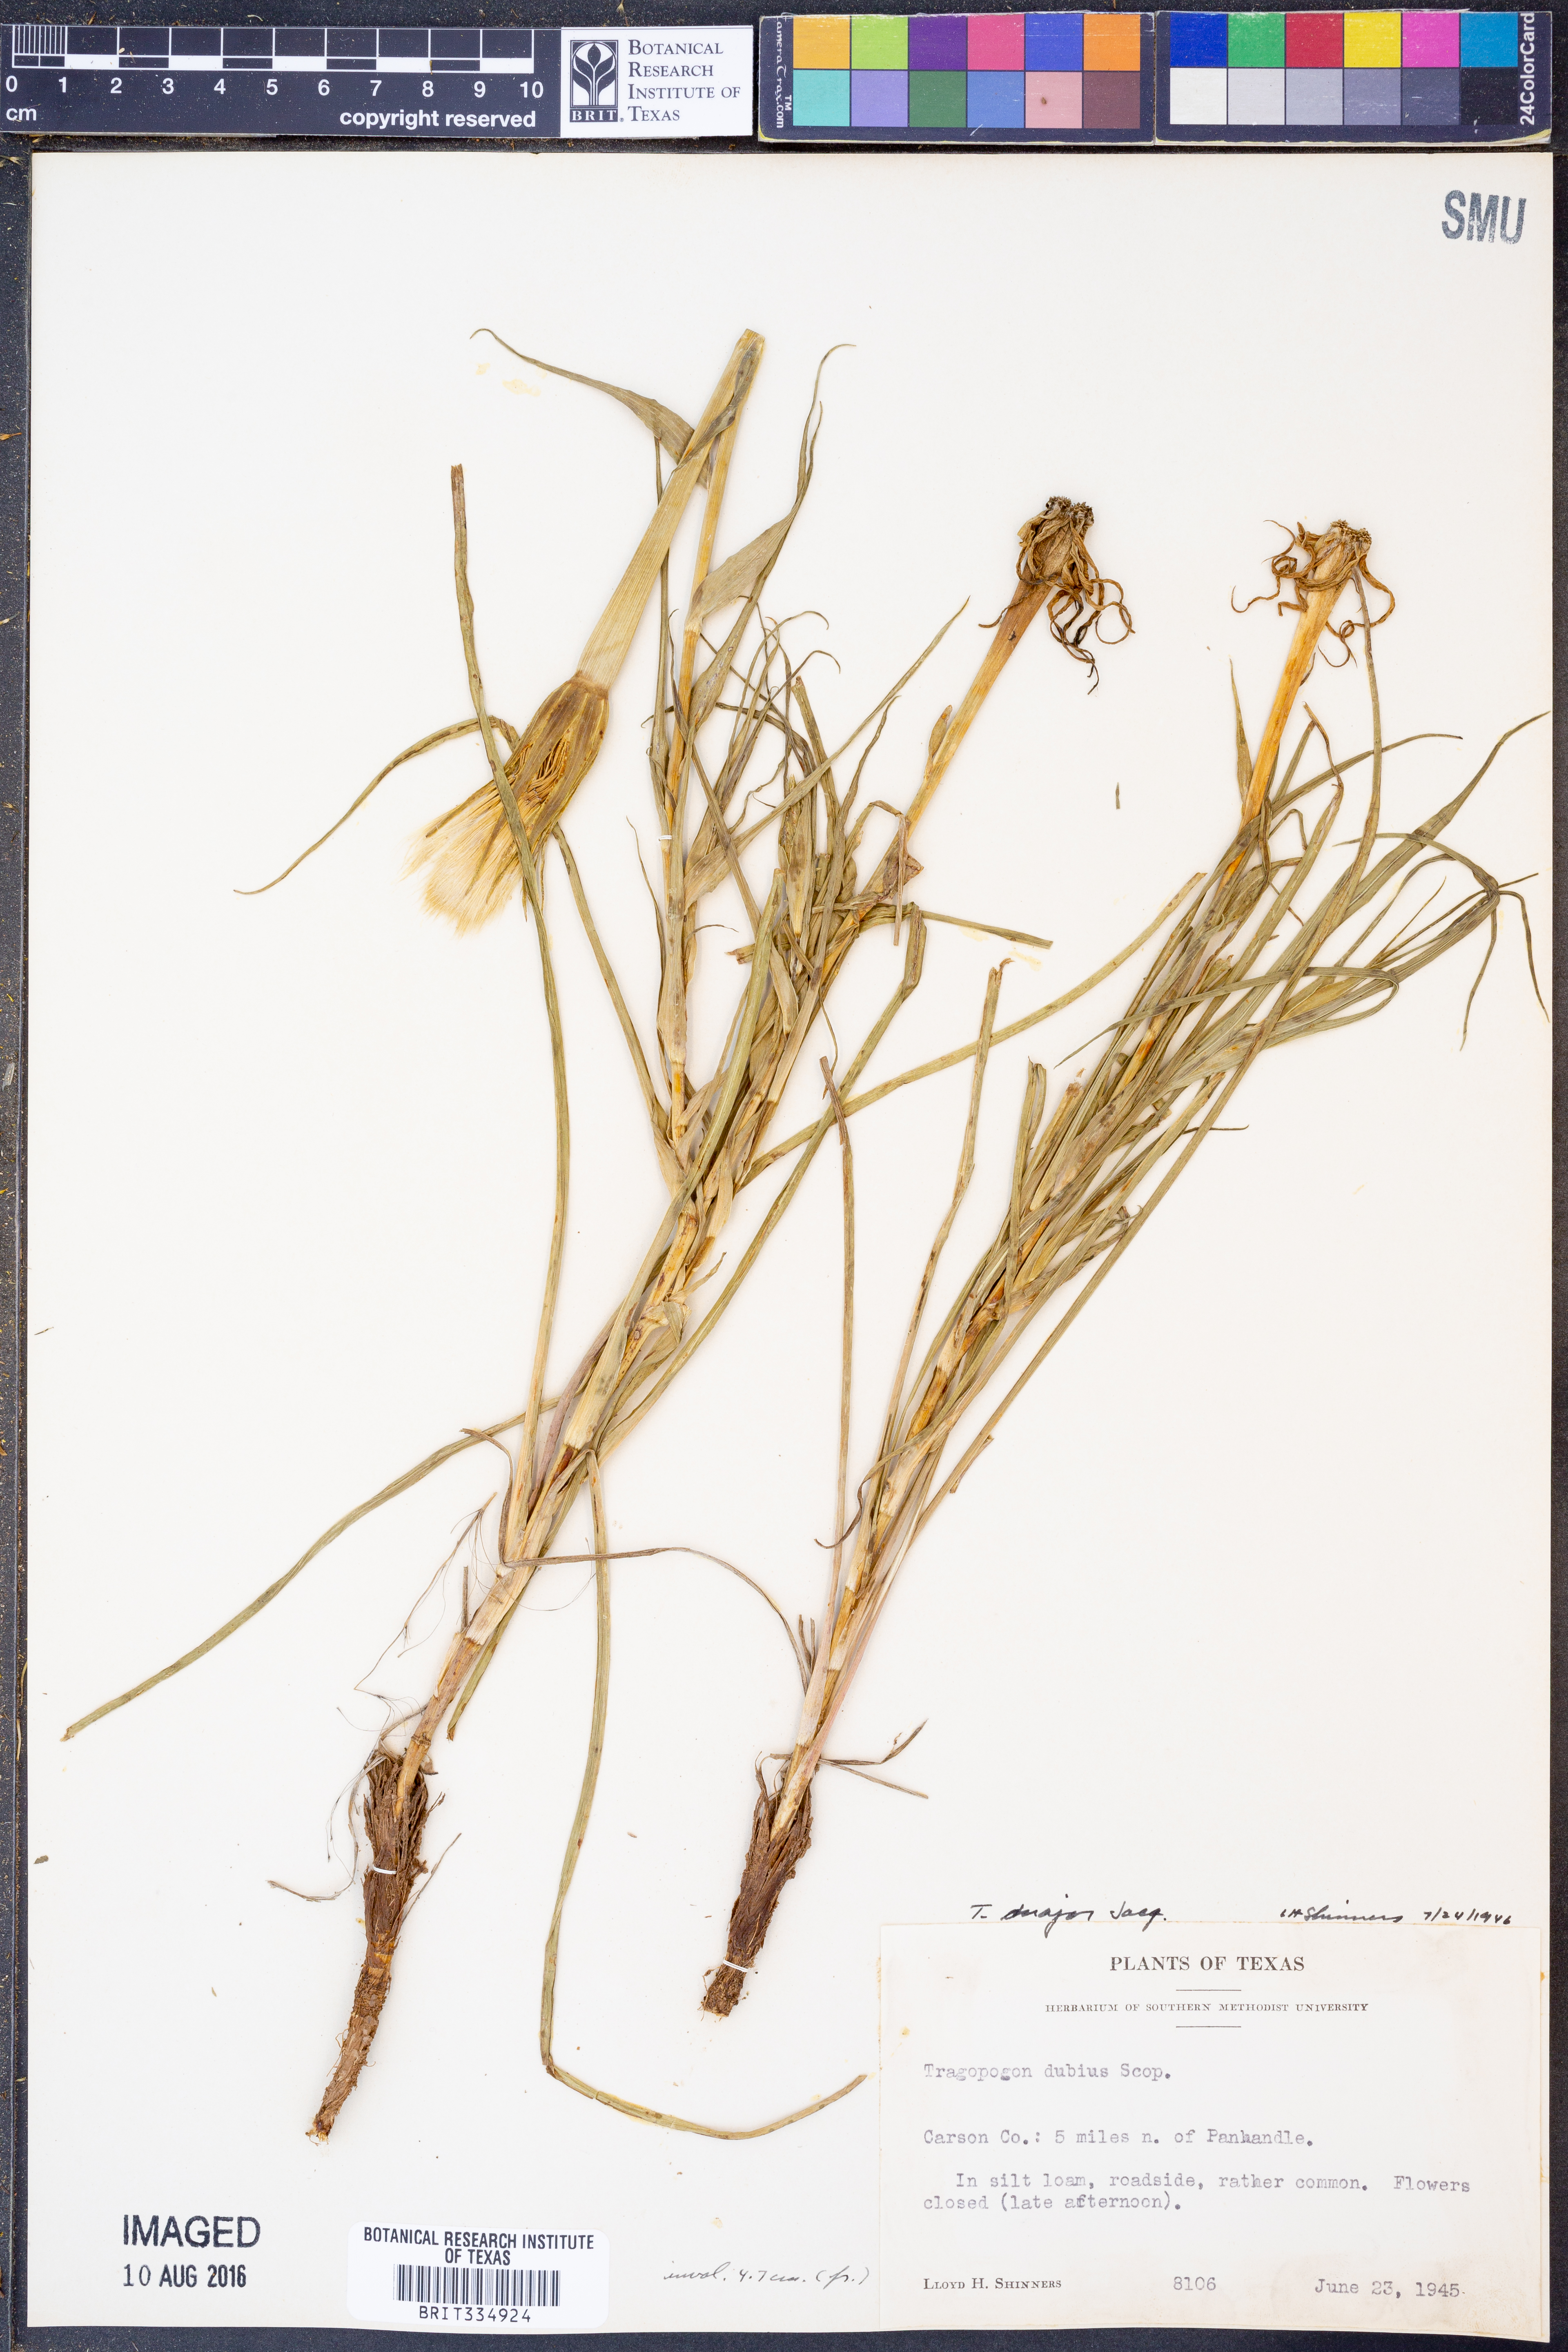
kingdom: Plantae
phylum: Tracheophyta
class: Magnoliopsida
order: Asterales
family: Asteraceae
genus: Tragopogon
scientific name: Tragopogon dubius
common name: Yellow salsify
